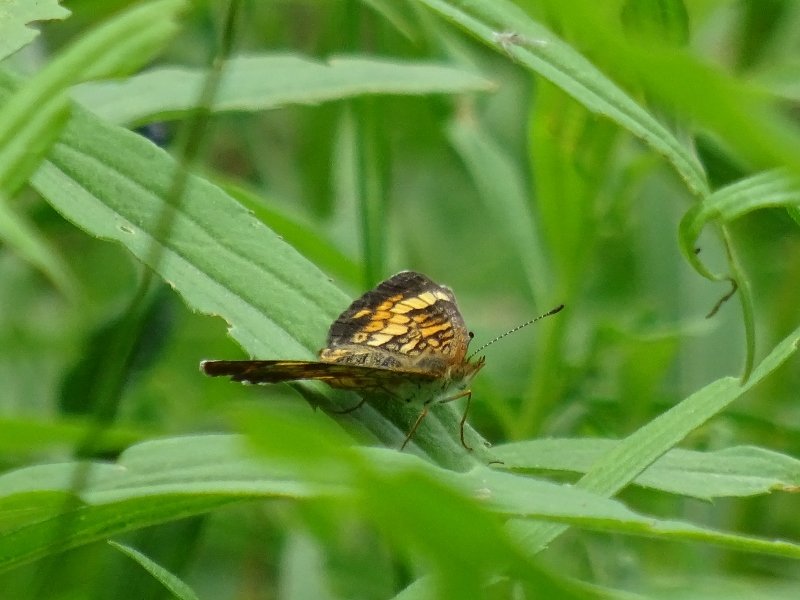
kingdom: Animalia
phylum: Arthropoda
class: Insecta
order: Lepidoptera
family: Nymphalidae
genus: Phyciodes
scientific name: Phyciodes tharos
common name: Pearl Crescent
